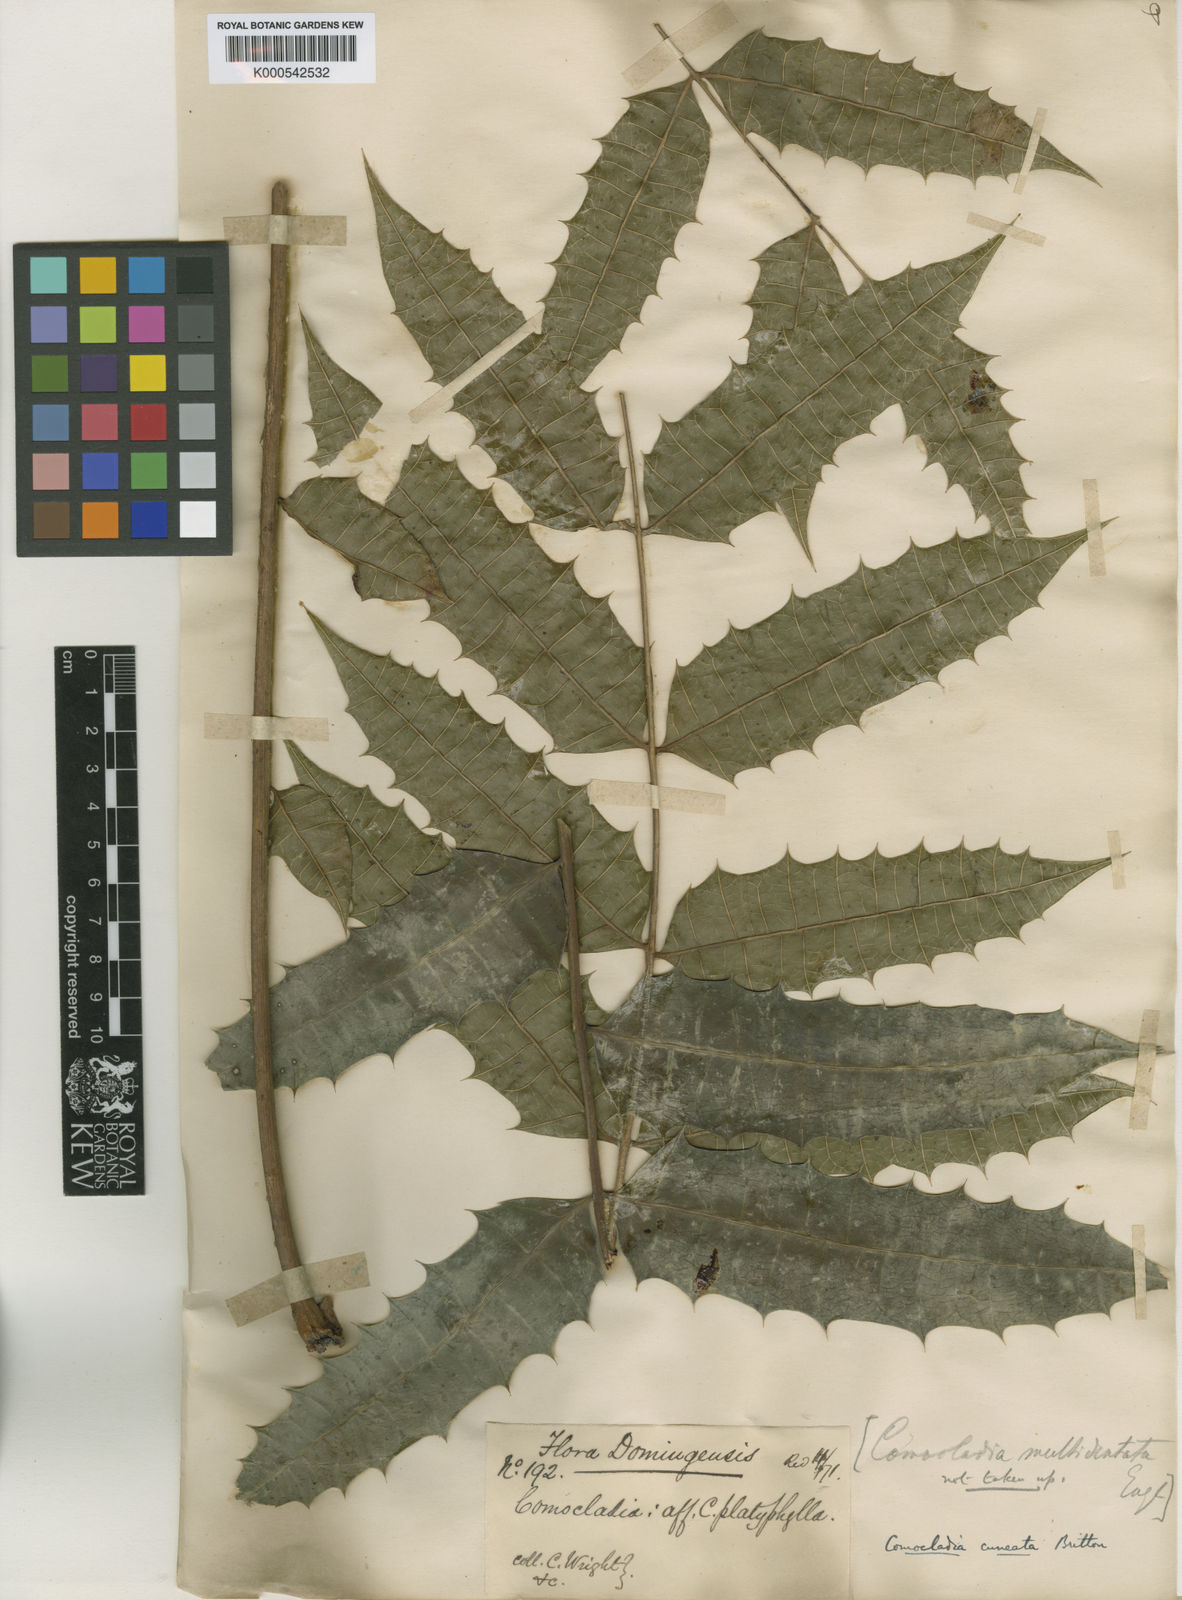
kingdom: Plantae
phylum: Tracheophyta
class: Magnoliopsida
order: Sapindales
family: Anacardiaceae
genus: Comocladia
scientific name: Comocladia cuneata
